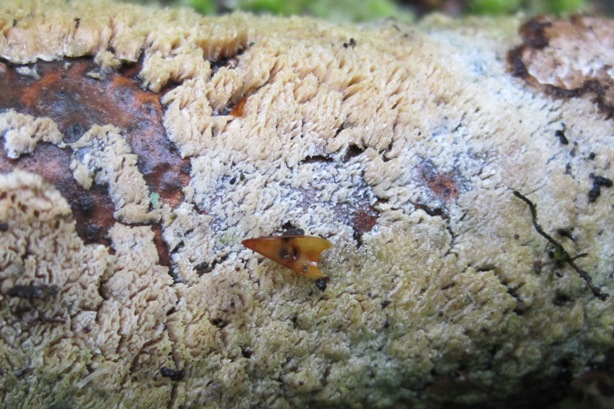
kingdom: Fungi
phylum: Basidiomycota
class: Agaricomycetes
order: Hymenochaetales
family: Schizoporaceae
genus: Schizopora
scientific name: Schizopora paradoxa
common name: hvid tandsvamp
